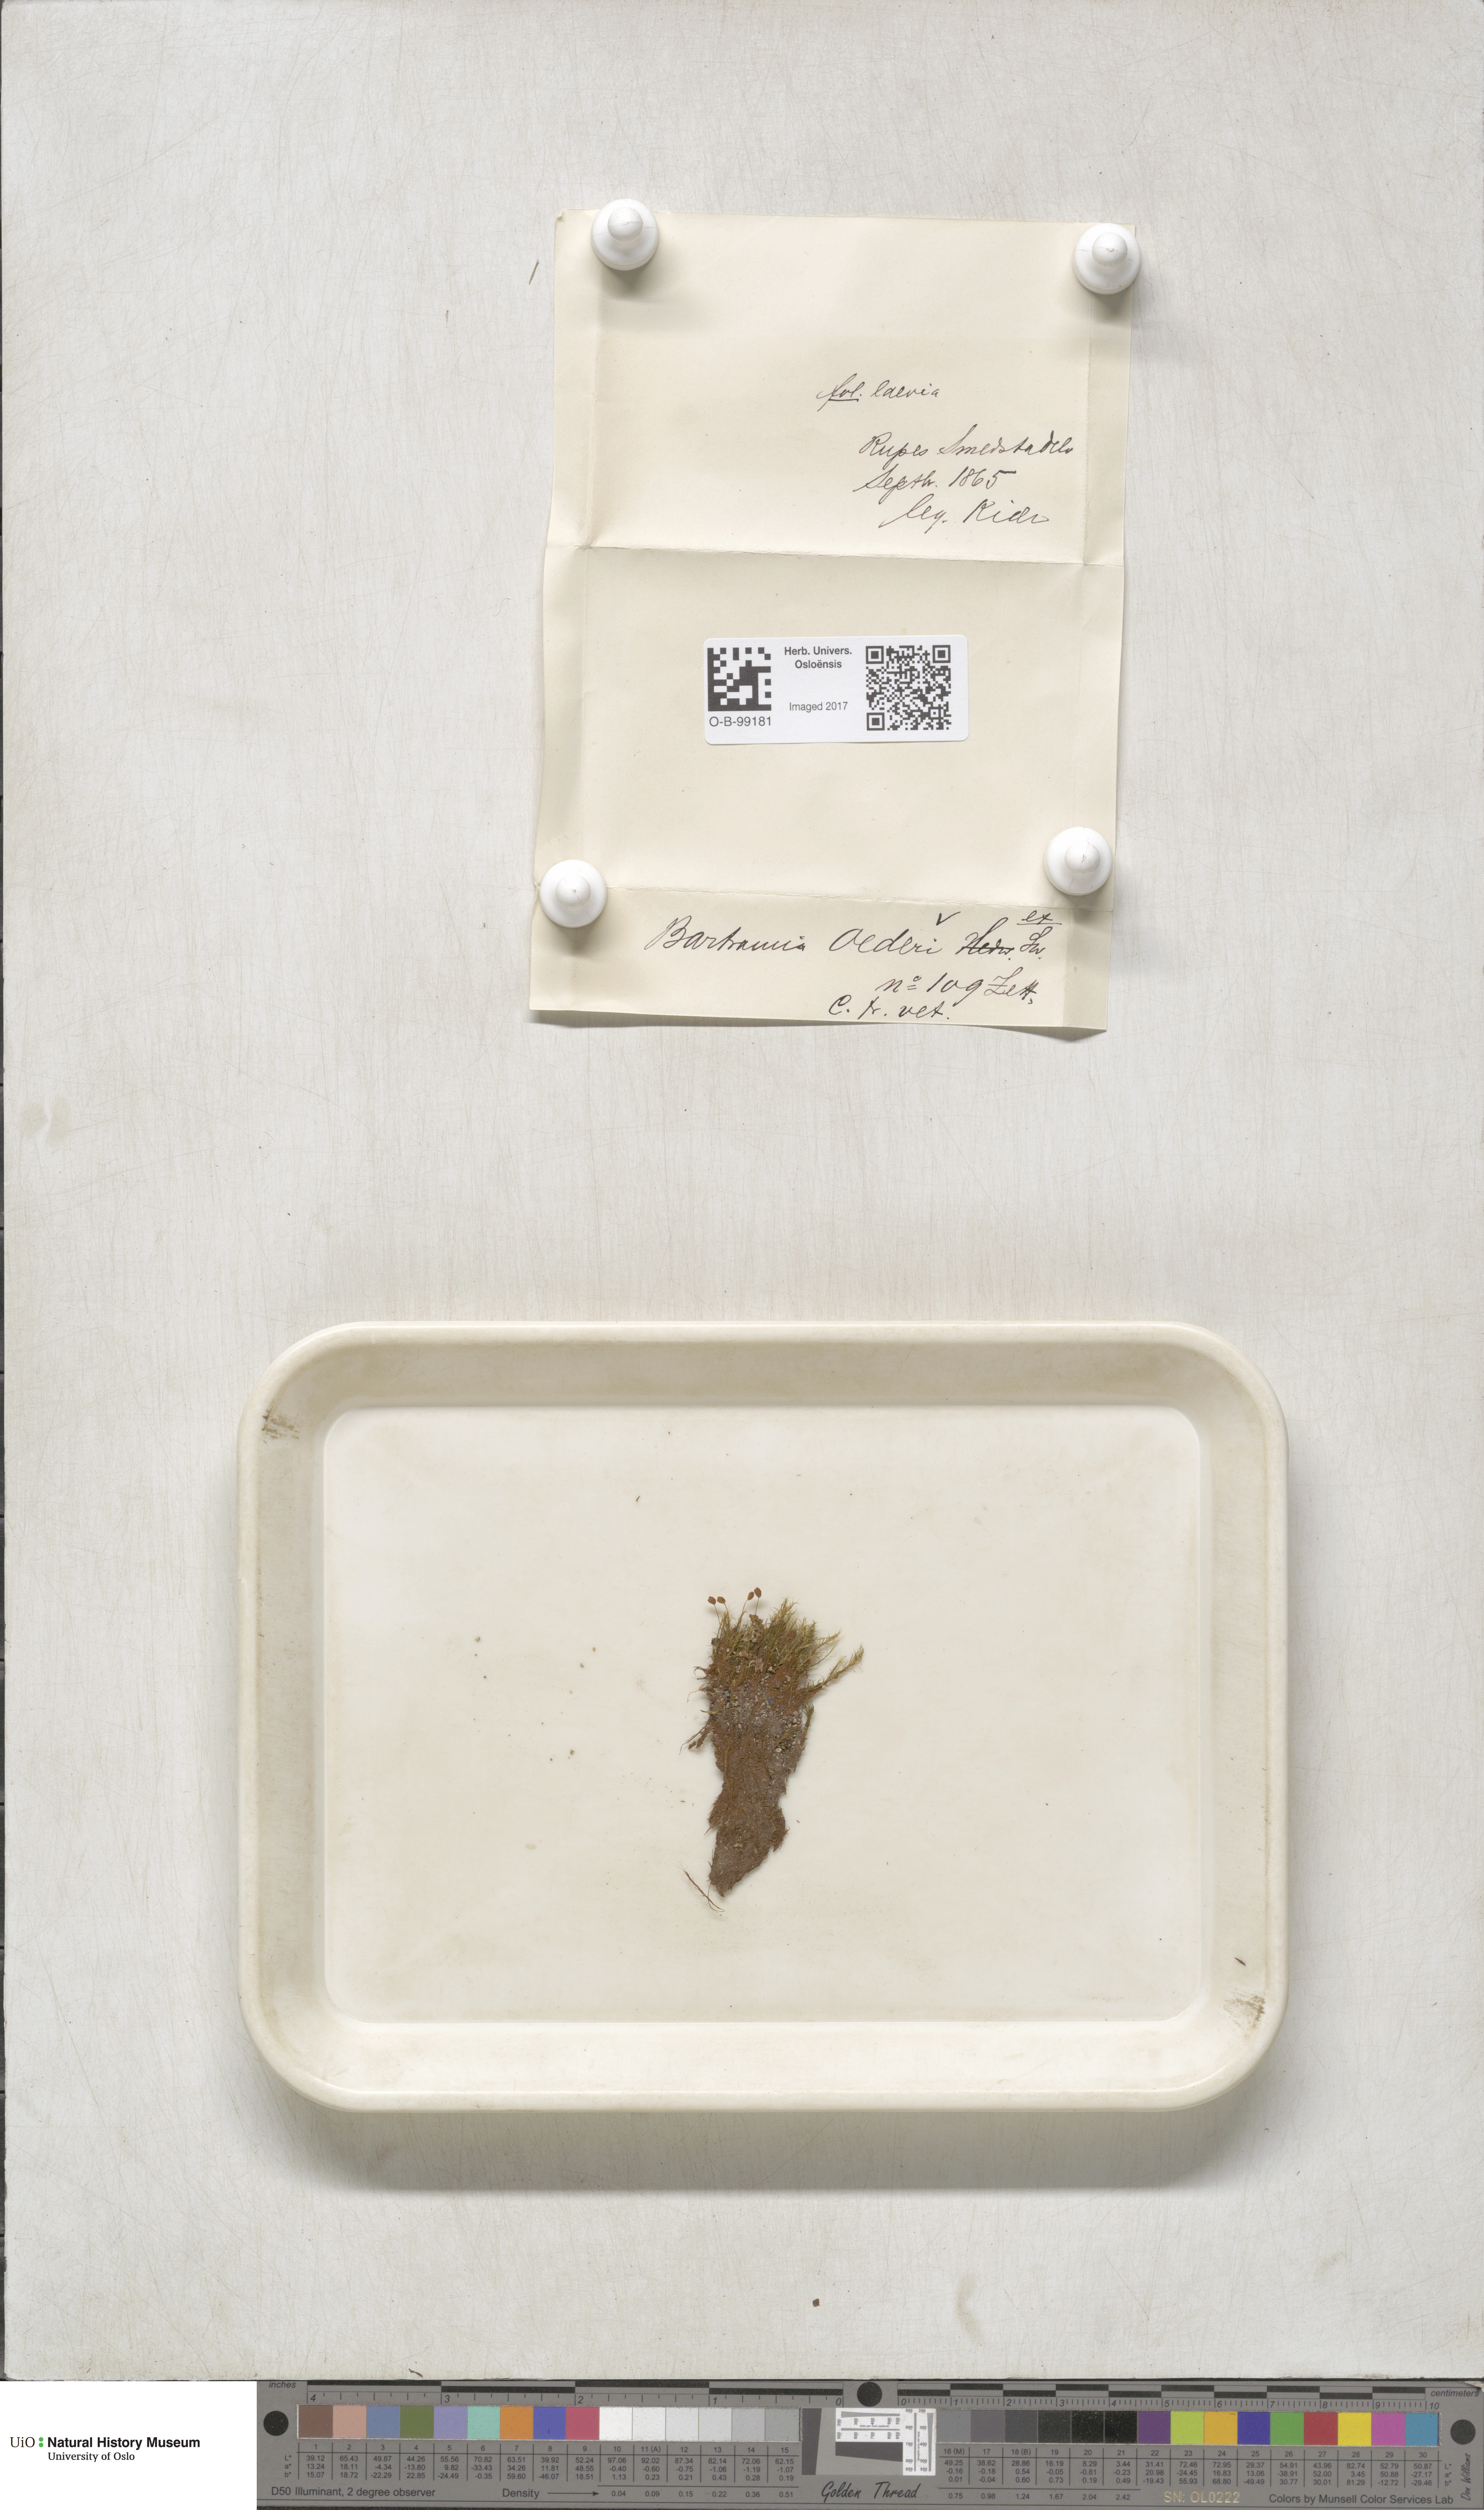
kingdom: Plantae
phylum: Bryophyta
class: Bryopsida
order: Bartramiales
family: Bartramiaceae
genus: Plagiopus
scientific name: Plagiopus oederianus
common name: Oeder's apple moss
